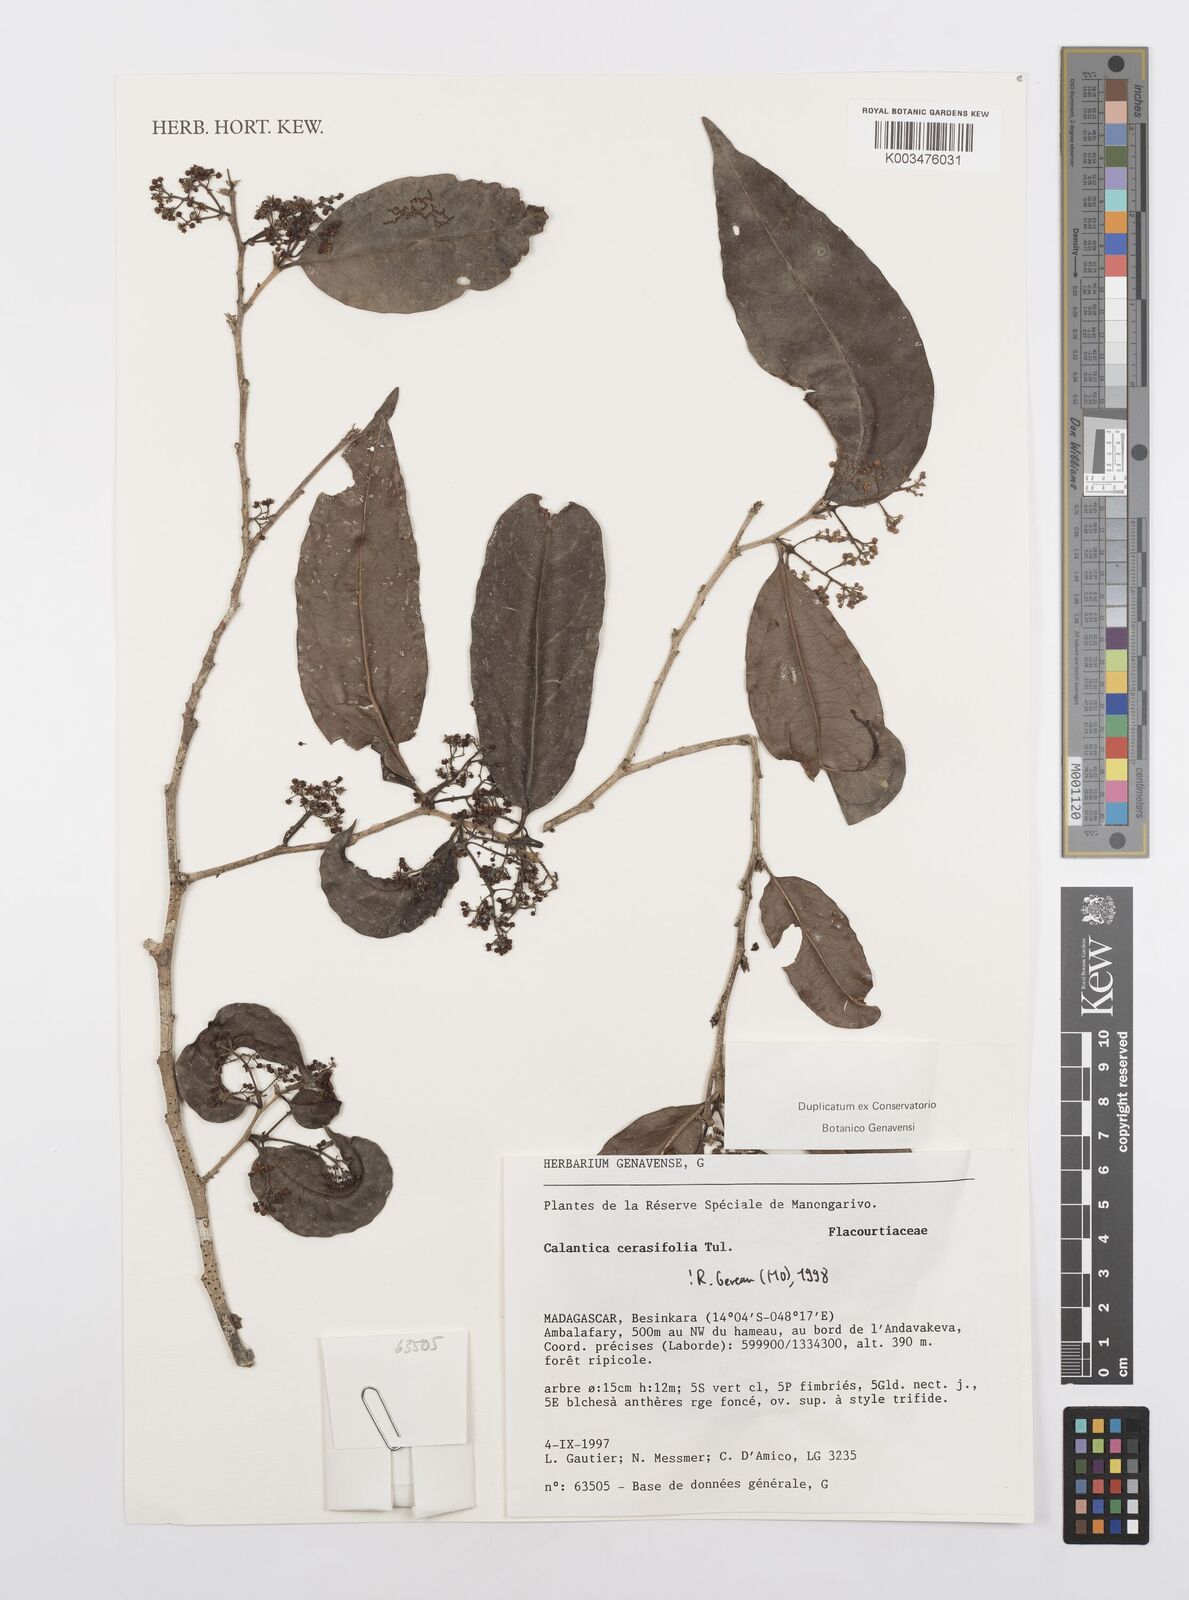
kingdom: Plantae
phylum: Tracheophyta
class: Magnoliopsida
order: Malpighiales
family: Salicaceae
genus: Calantica
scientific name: Calantica cerasifolia
